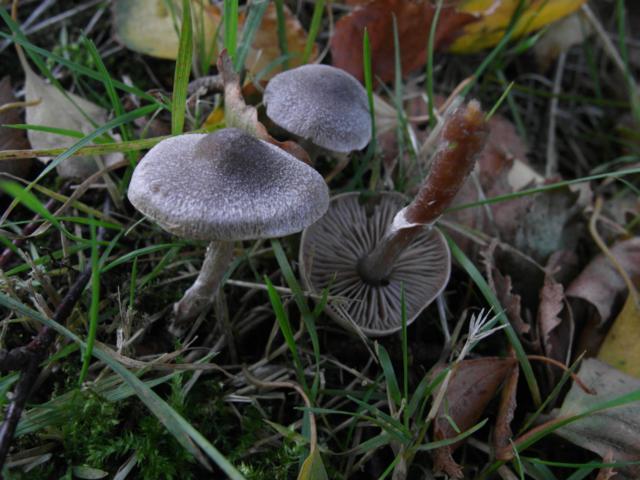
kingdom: Fungi
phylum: Basidiomycota
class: Agaricomycetes
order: Agaricales
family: Cortinariaceae
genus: Cortinarius
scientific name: Cortinarius hemitrichus
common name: hvidfnugget slørhat
